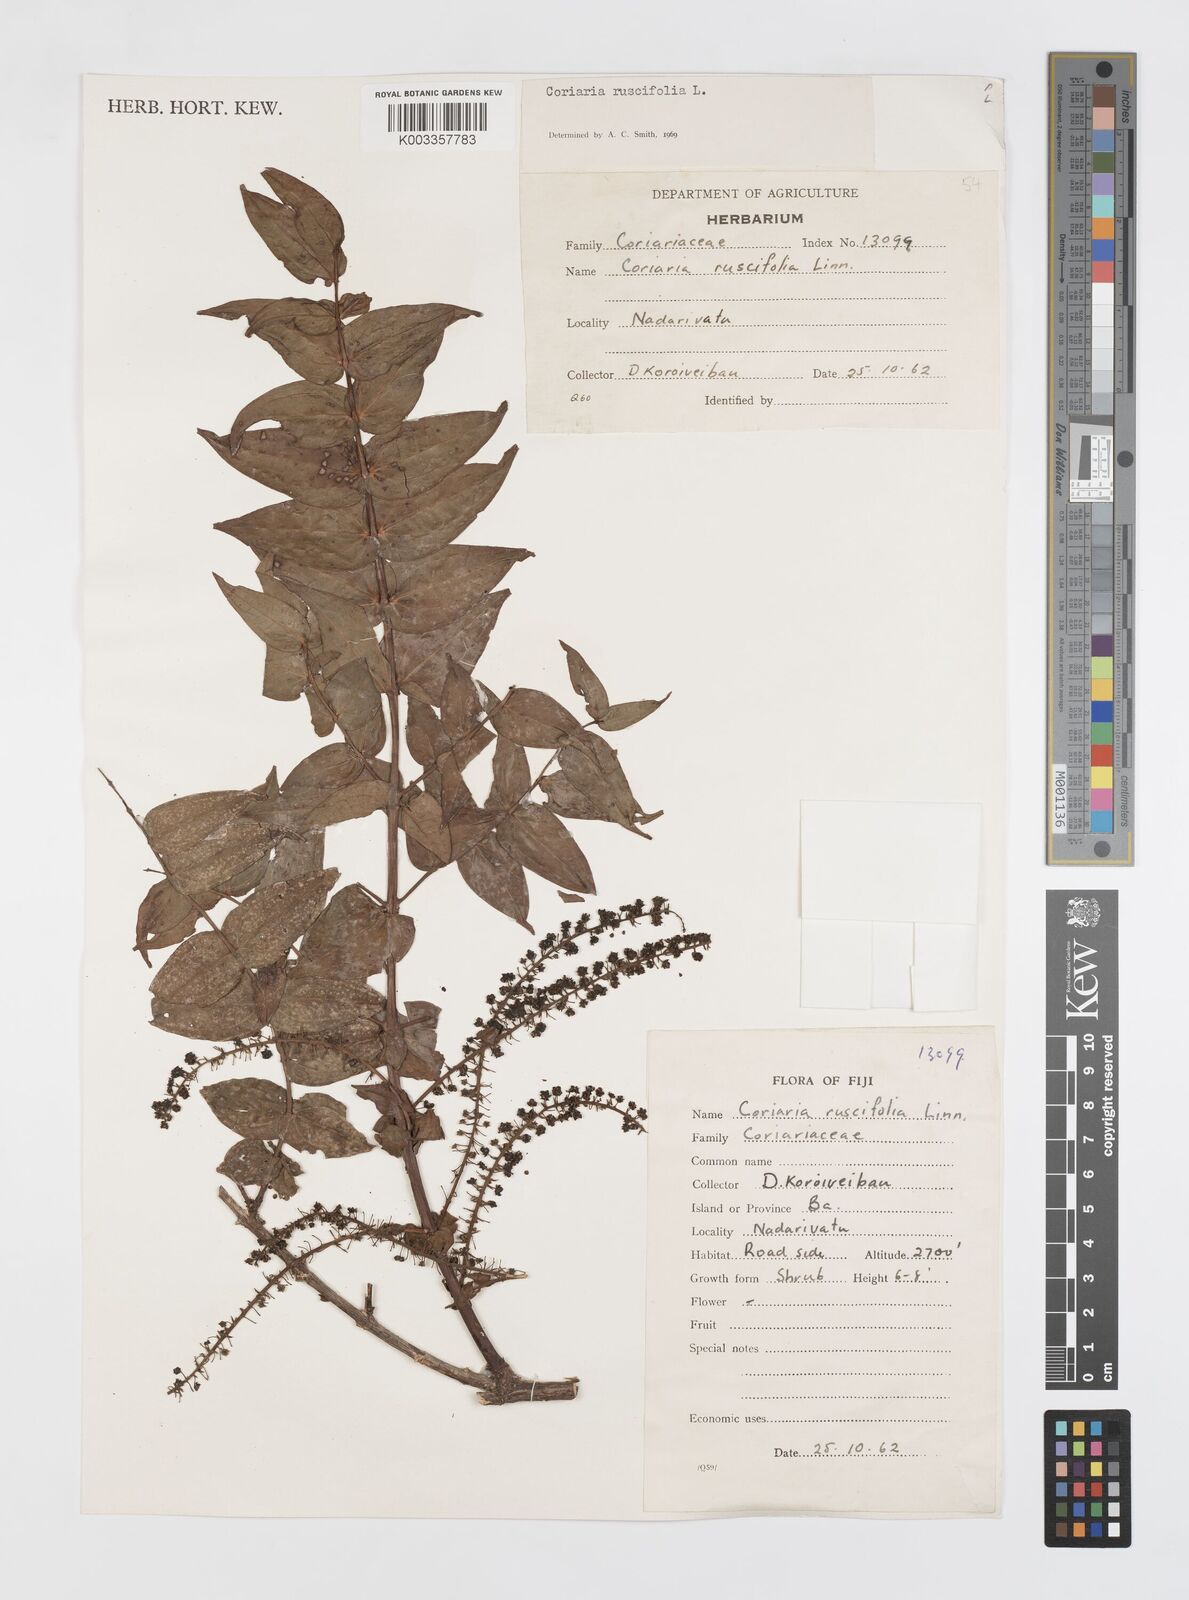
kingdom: Plantae
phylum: Tracheophyta
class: Magnoliopsida
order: Cucurbitales
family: Coriariaceae
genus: Coriaria
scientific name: Coriaria ruscifolia
